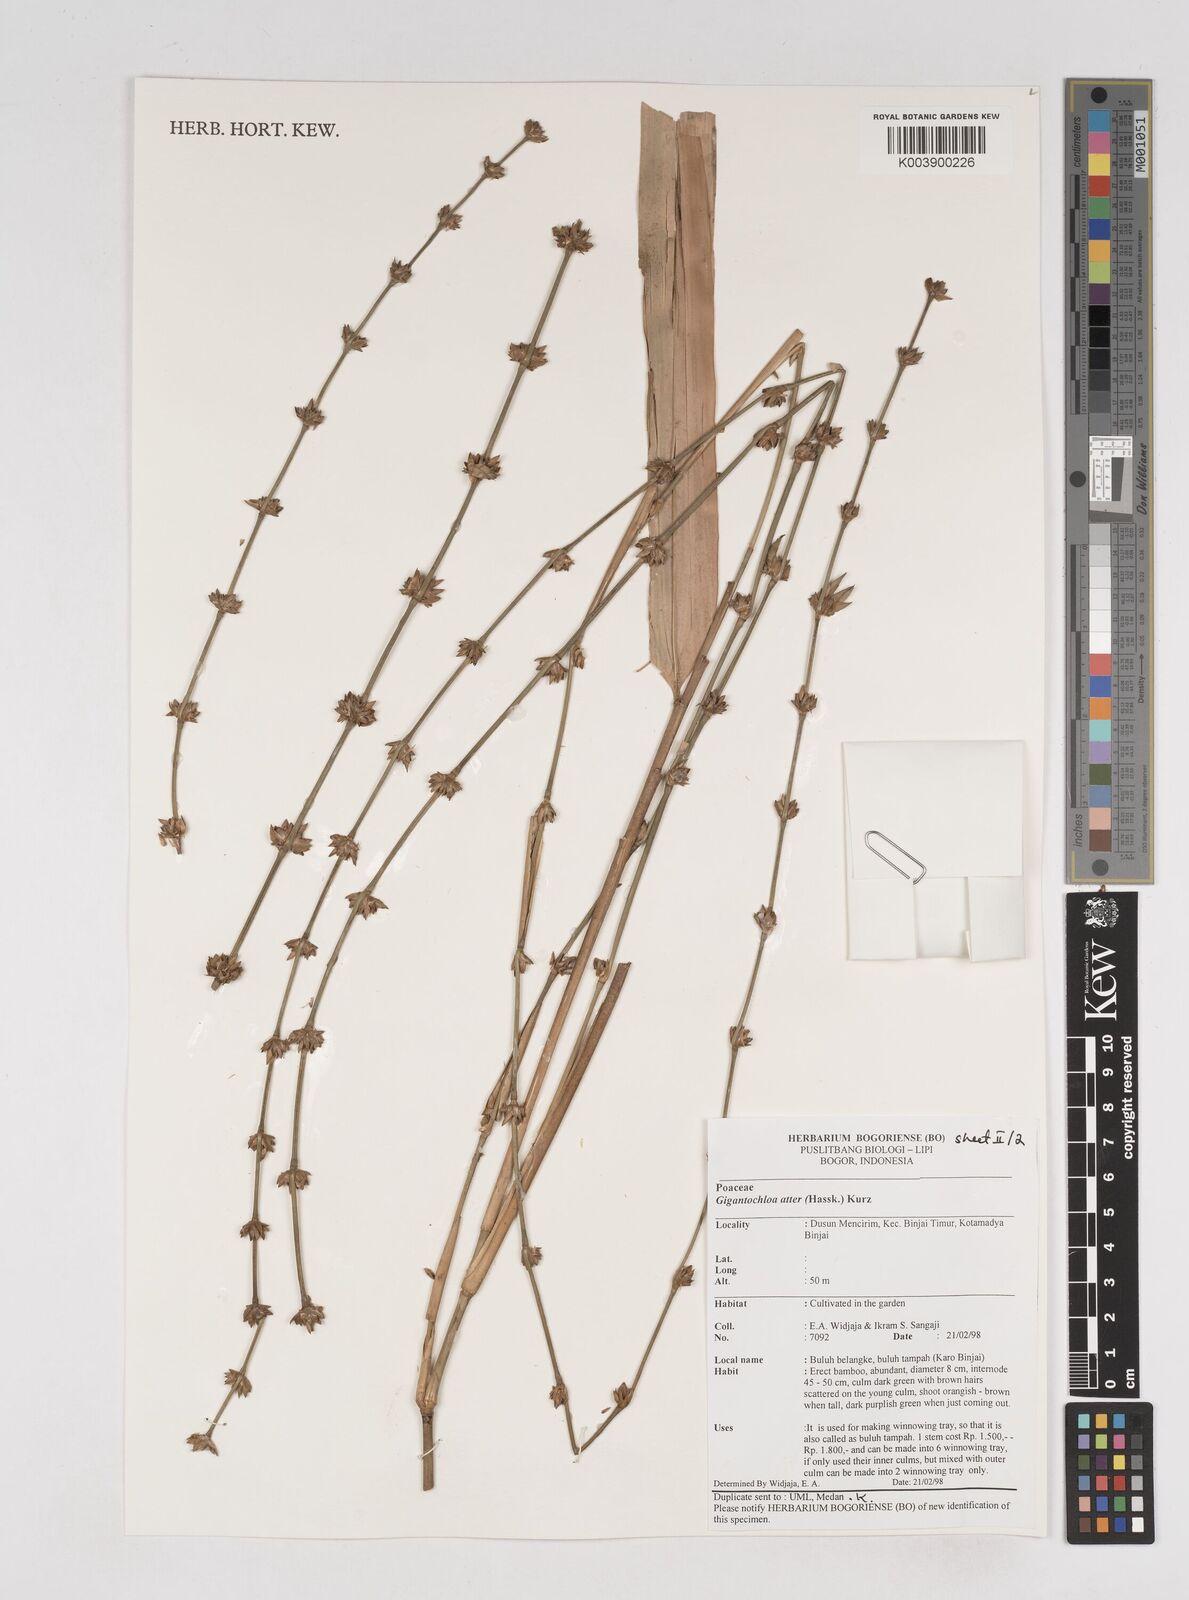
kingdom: Plantae
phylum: Tracheophyta
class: Liliopsida
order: Poales
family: Poaceae
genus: Gigantochloa
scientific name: Gigantochloa atter
